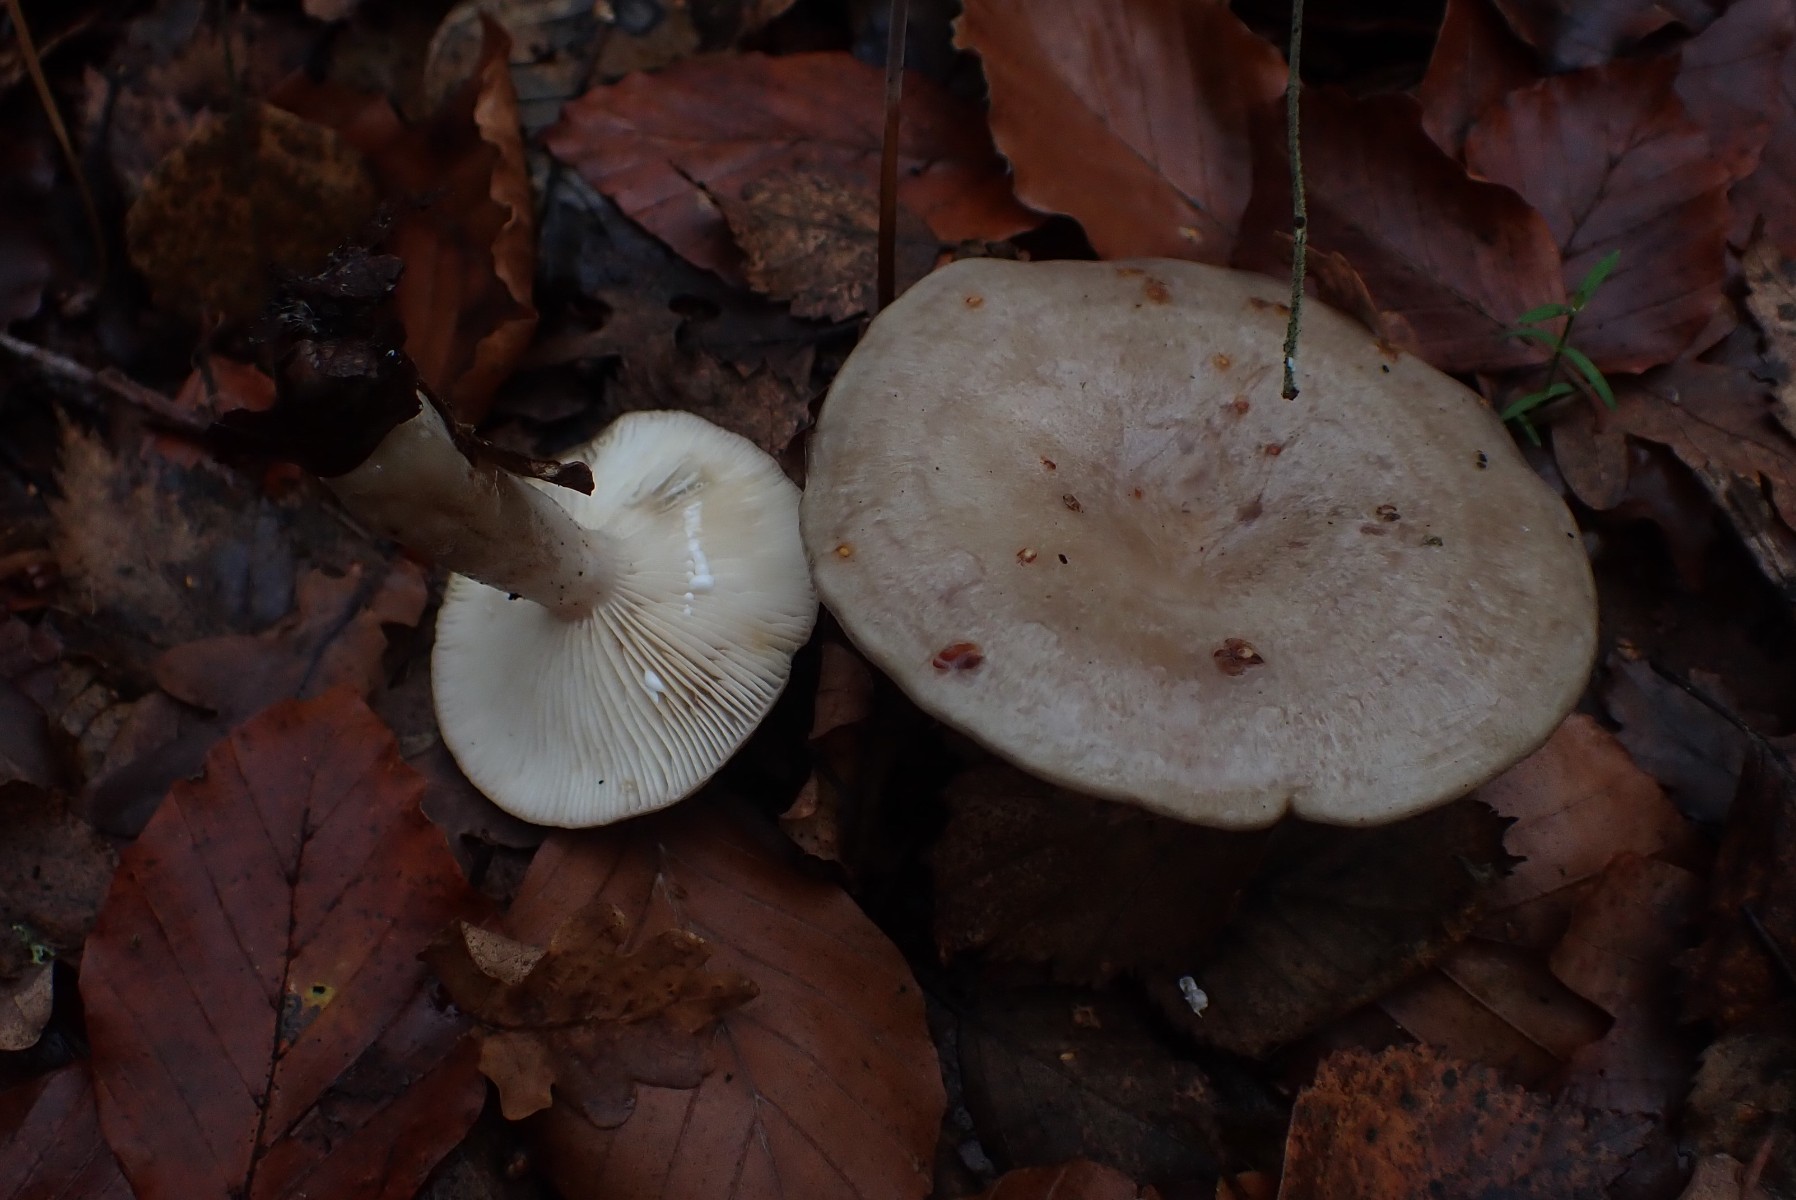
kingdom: Fungi
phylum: Basidiomycota
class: Agaricomycetes
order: Russulales
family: Russulaceae
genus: Lactarius
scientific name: Lactarius blennius
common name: dråbeplettet mælkehat
